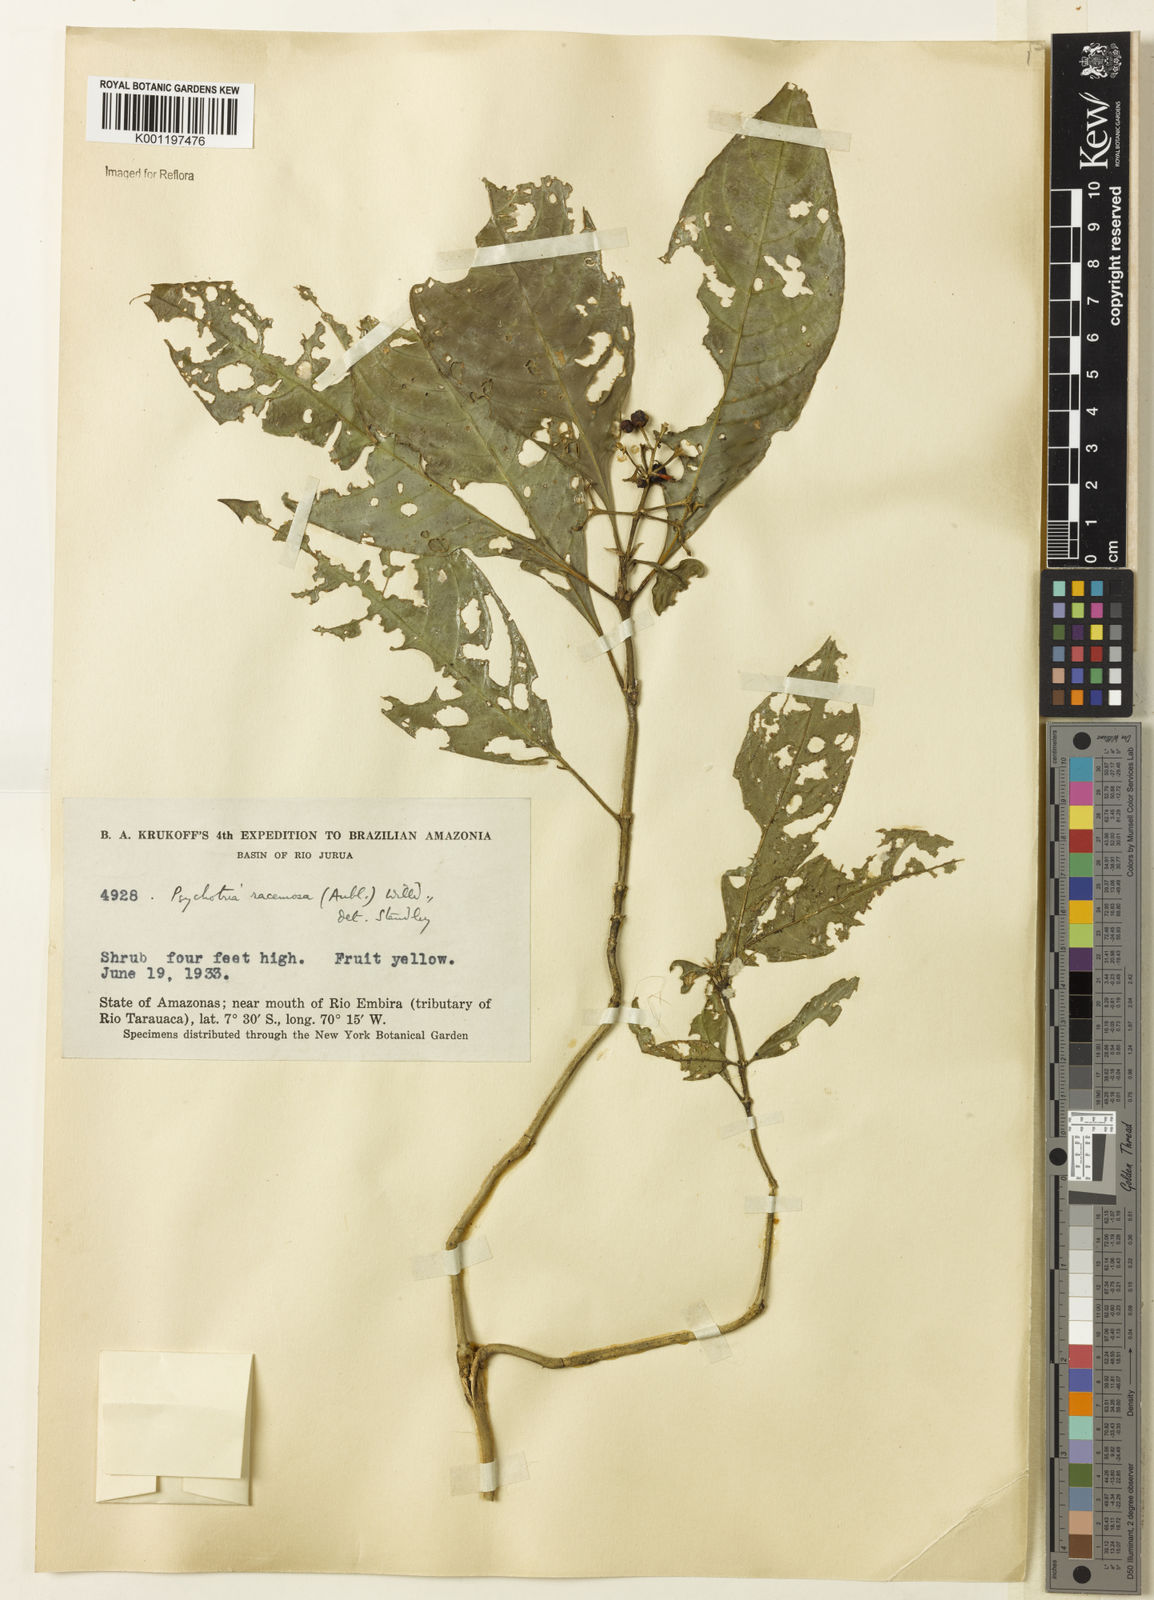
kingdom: Plantae
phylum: Tracheophyta
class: Magnoliopsida
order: Gentianales
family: Rubiaceae
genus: Palicourea
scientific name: Palicourea racemosa
